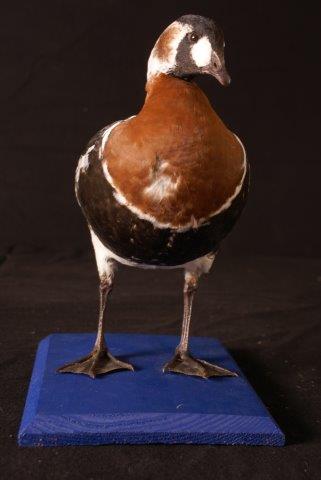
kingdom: Animalia
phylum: Chordata
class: Aves
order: Anseriformes
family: Anatidae
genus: Branta
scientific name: Branta ruficollis
